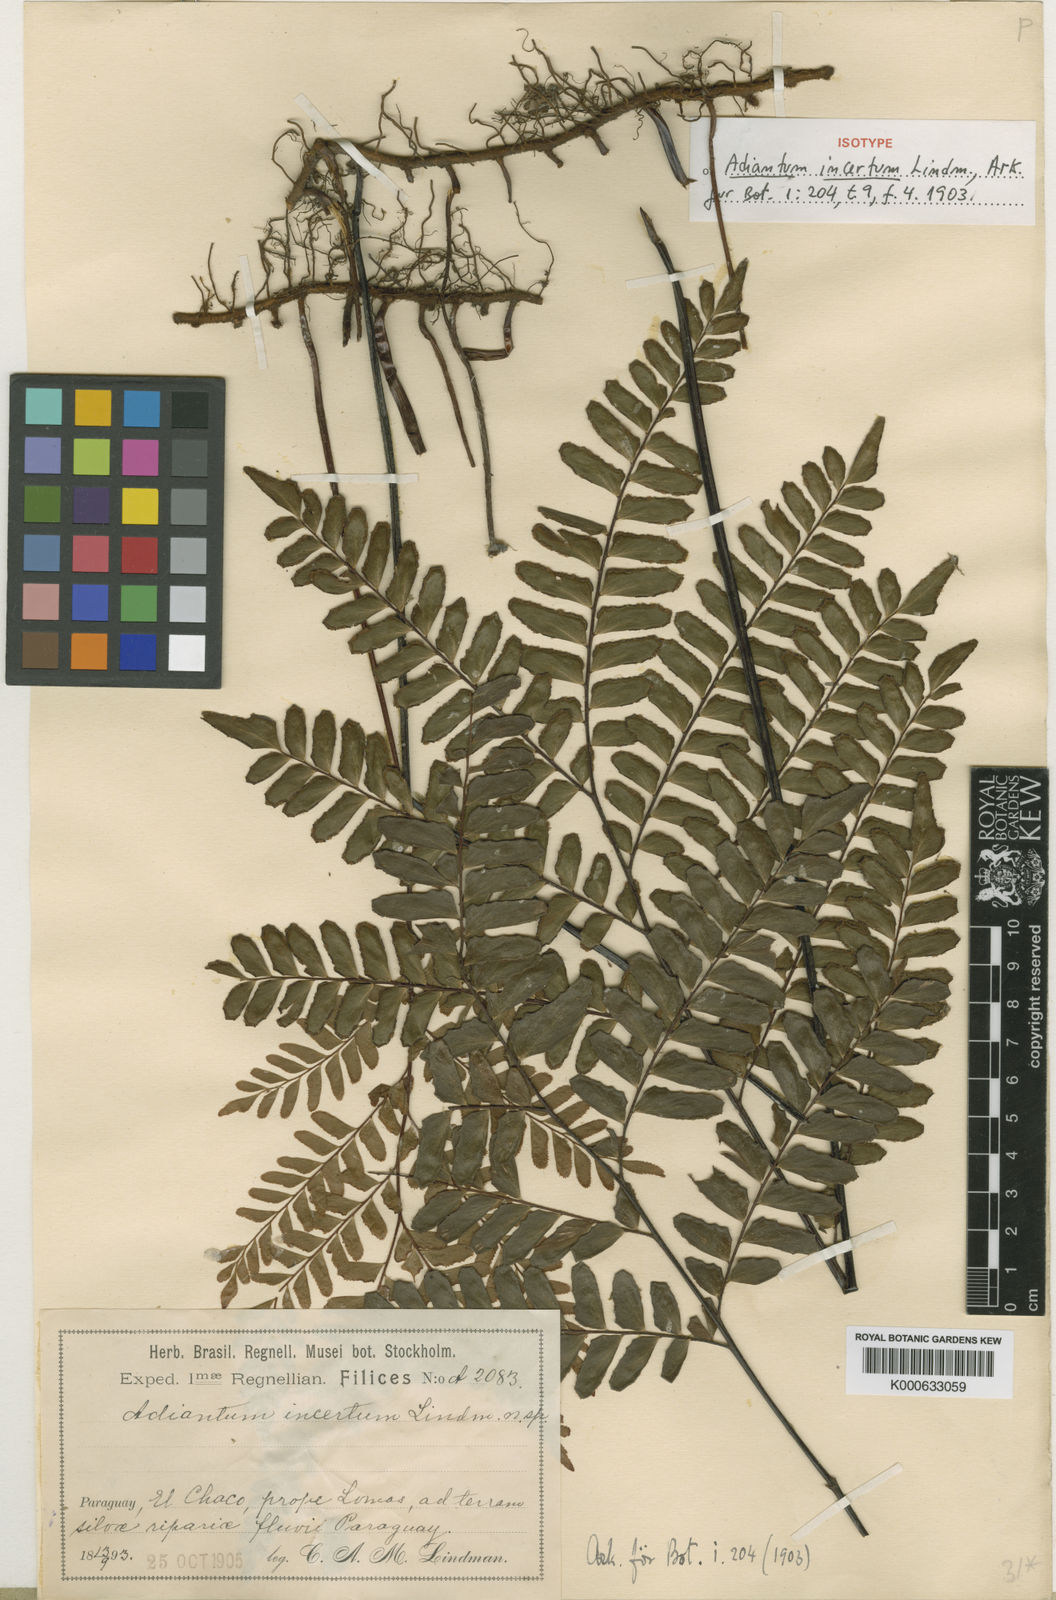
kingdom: Plantae
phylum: Tracheophyta
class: Polypodiopsida
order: Polypodiales
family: Pteridaceae
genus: Adiantum
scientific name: Adiantum incertum
